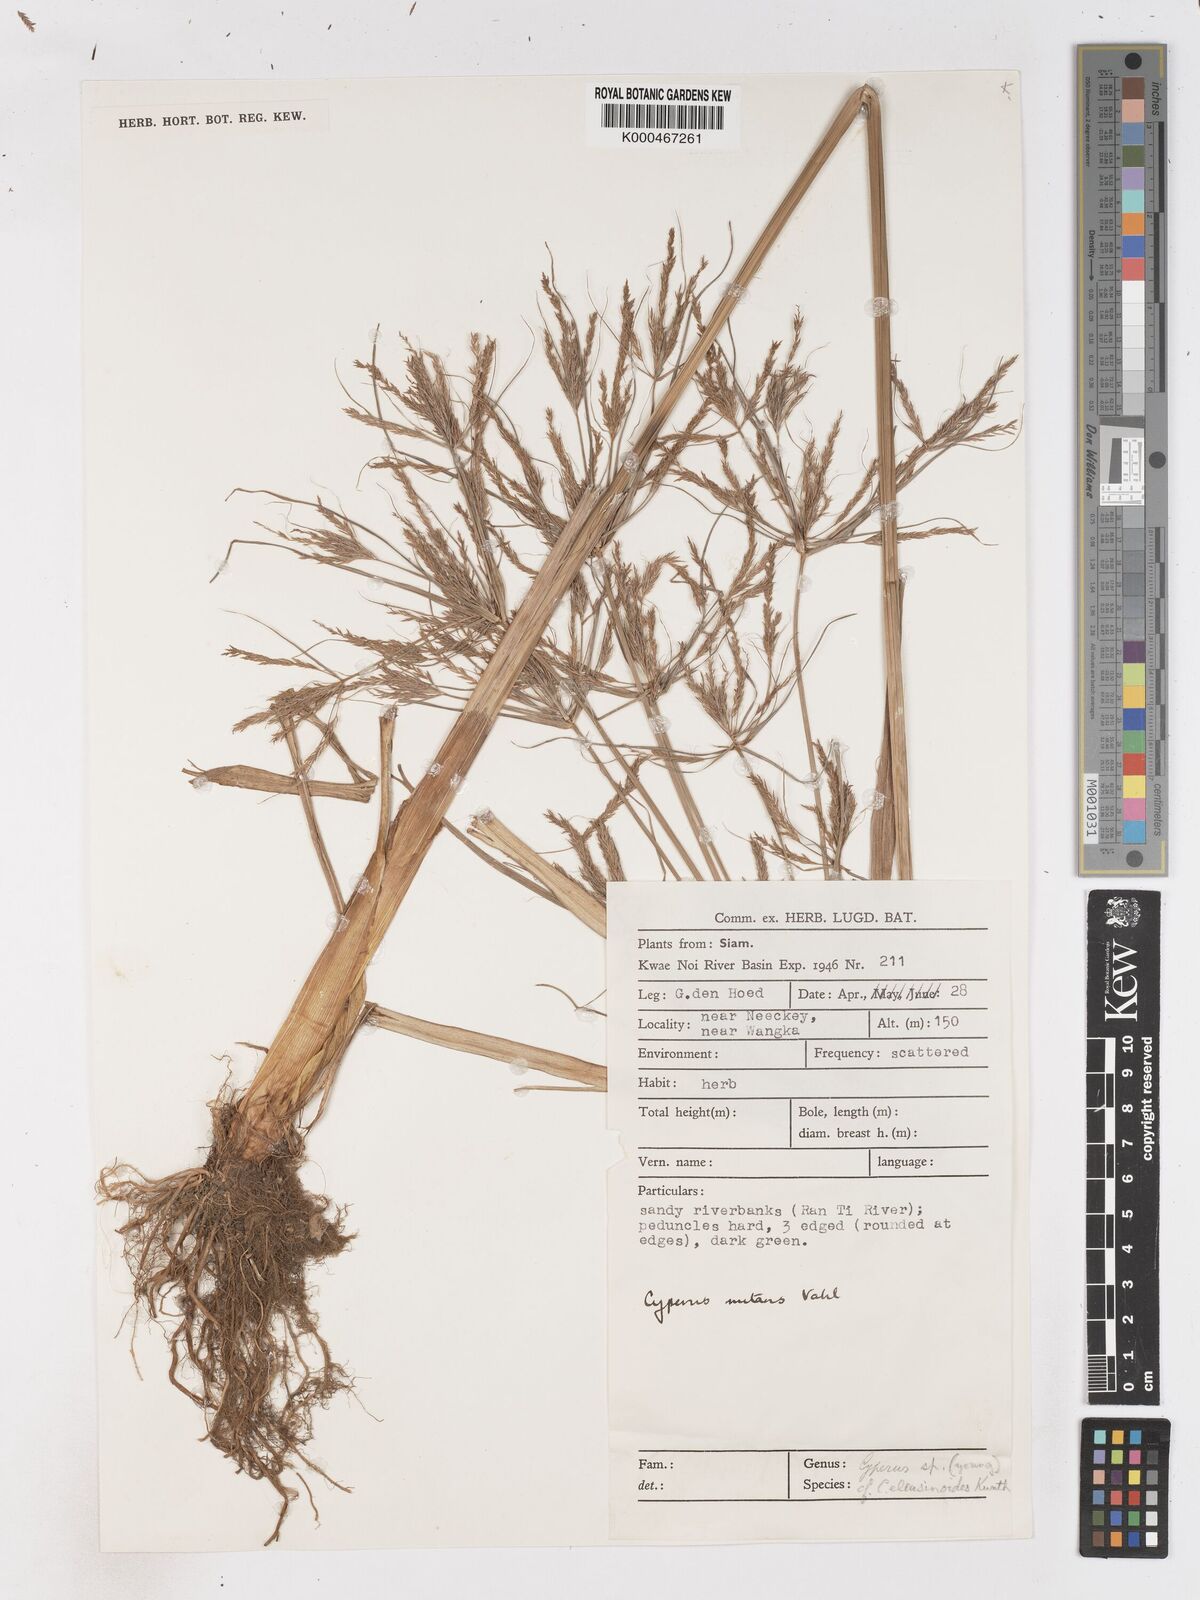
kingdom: Plantae
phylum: Tracheophyta
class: Liliopsida
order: Poales
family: Cyperaceae
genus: Cyperus
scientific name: Cyperus nutans
